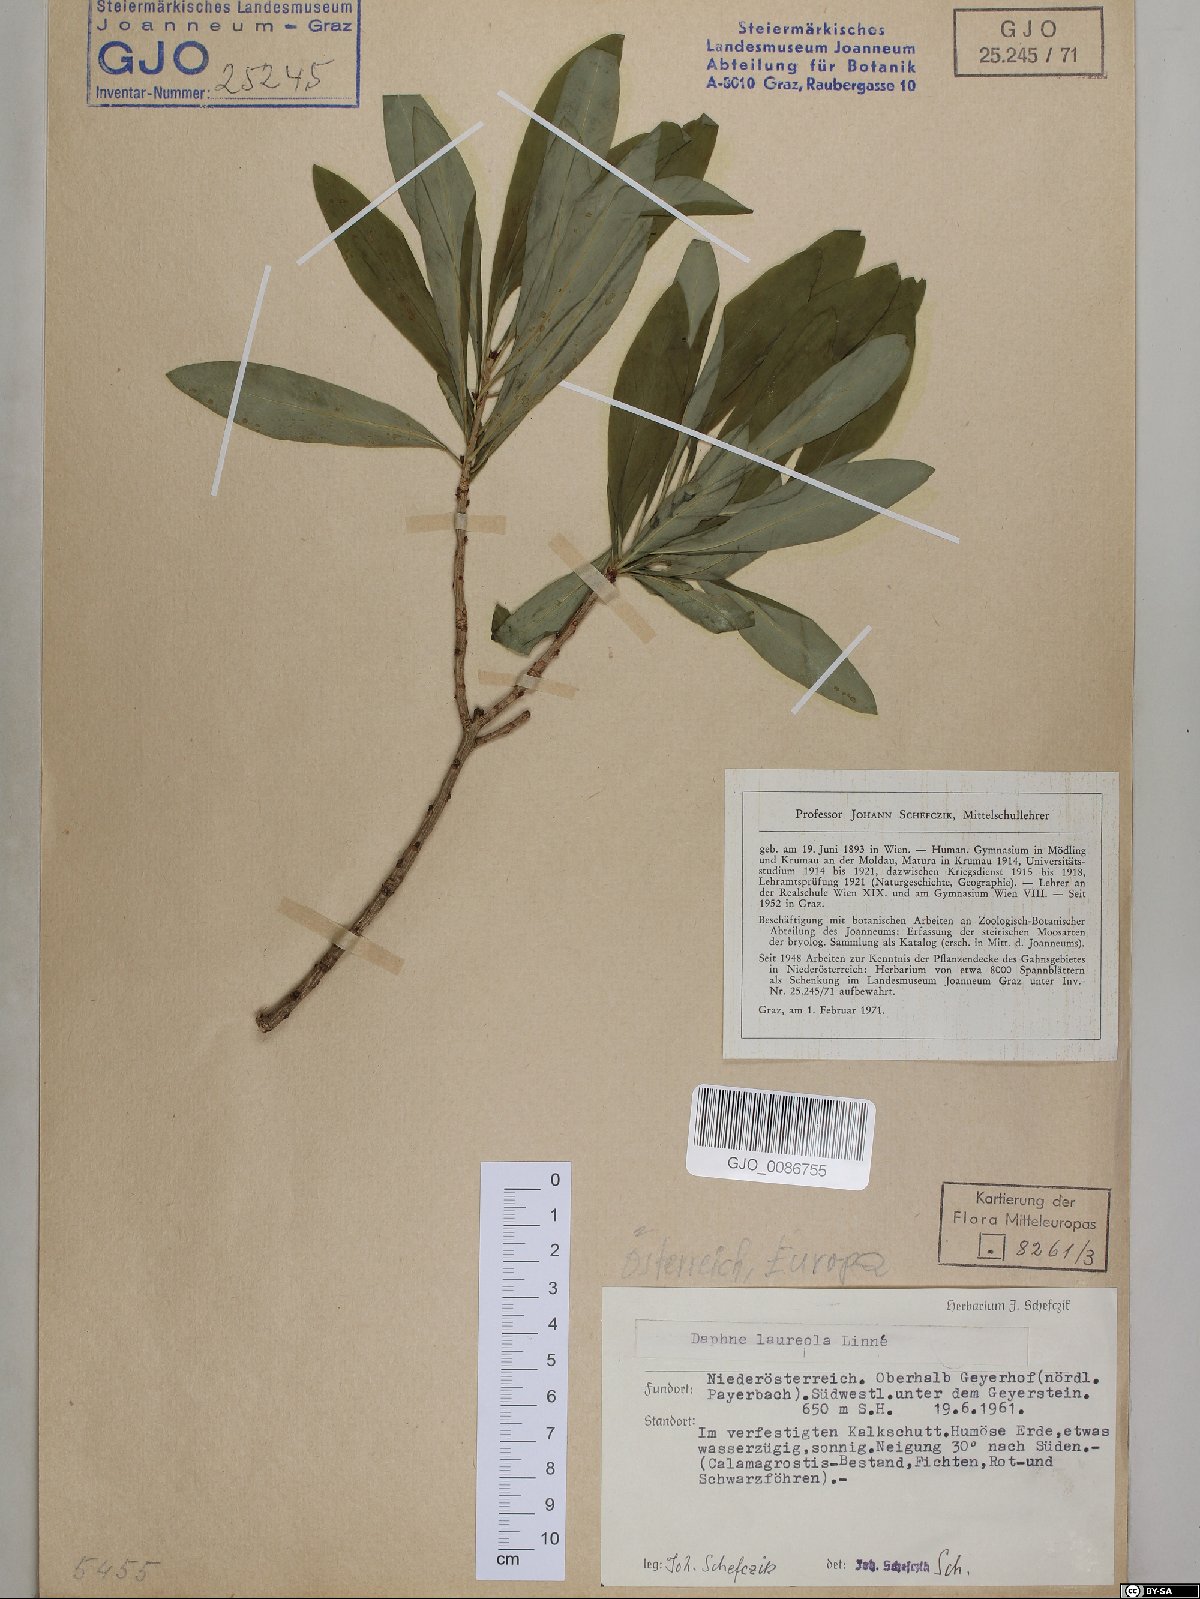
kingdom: Plantae
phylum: Tracheophyta
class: Magnoliopsida
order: Malvales
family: Thymelaeaceae
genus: Daphne
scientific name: Daphne laureola
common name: Spurge-laurel
